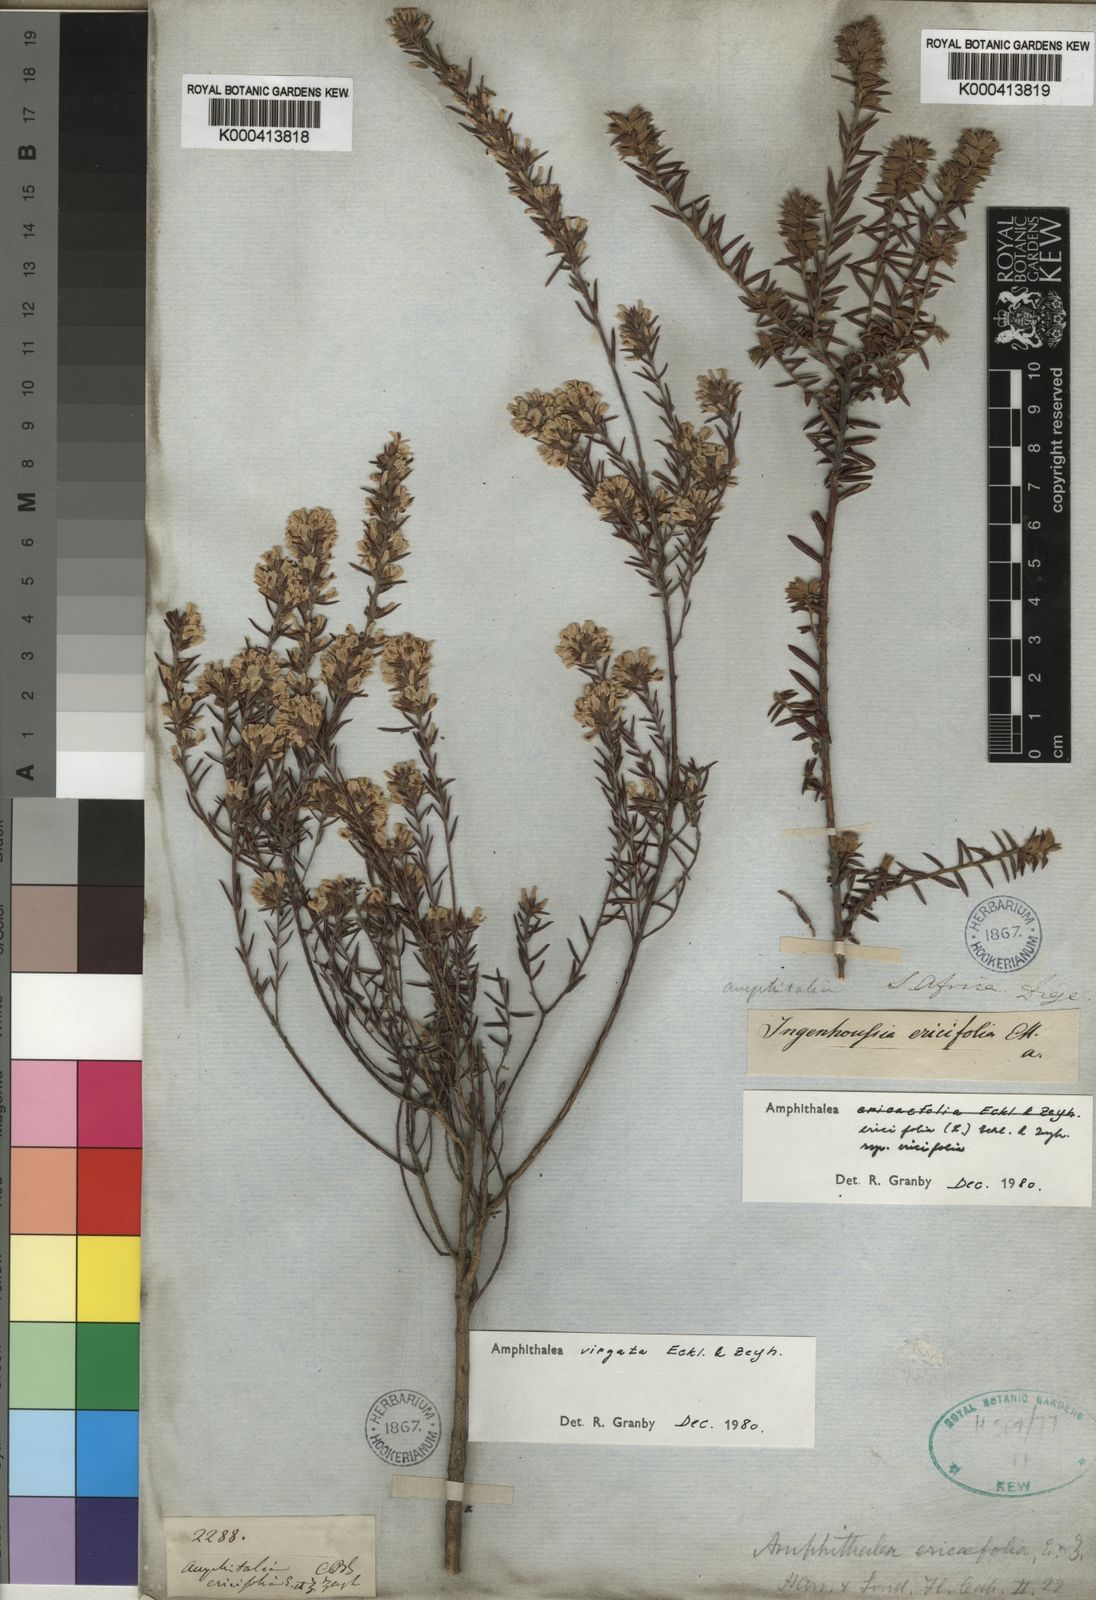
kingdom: Plantae
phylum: Tracheophyta
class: Magnoliopsida
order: Fabales
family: Fabaceae
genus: Amphithalea
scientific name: Amphithalea ericifolia
